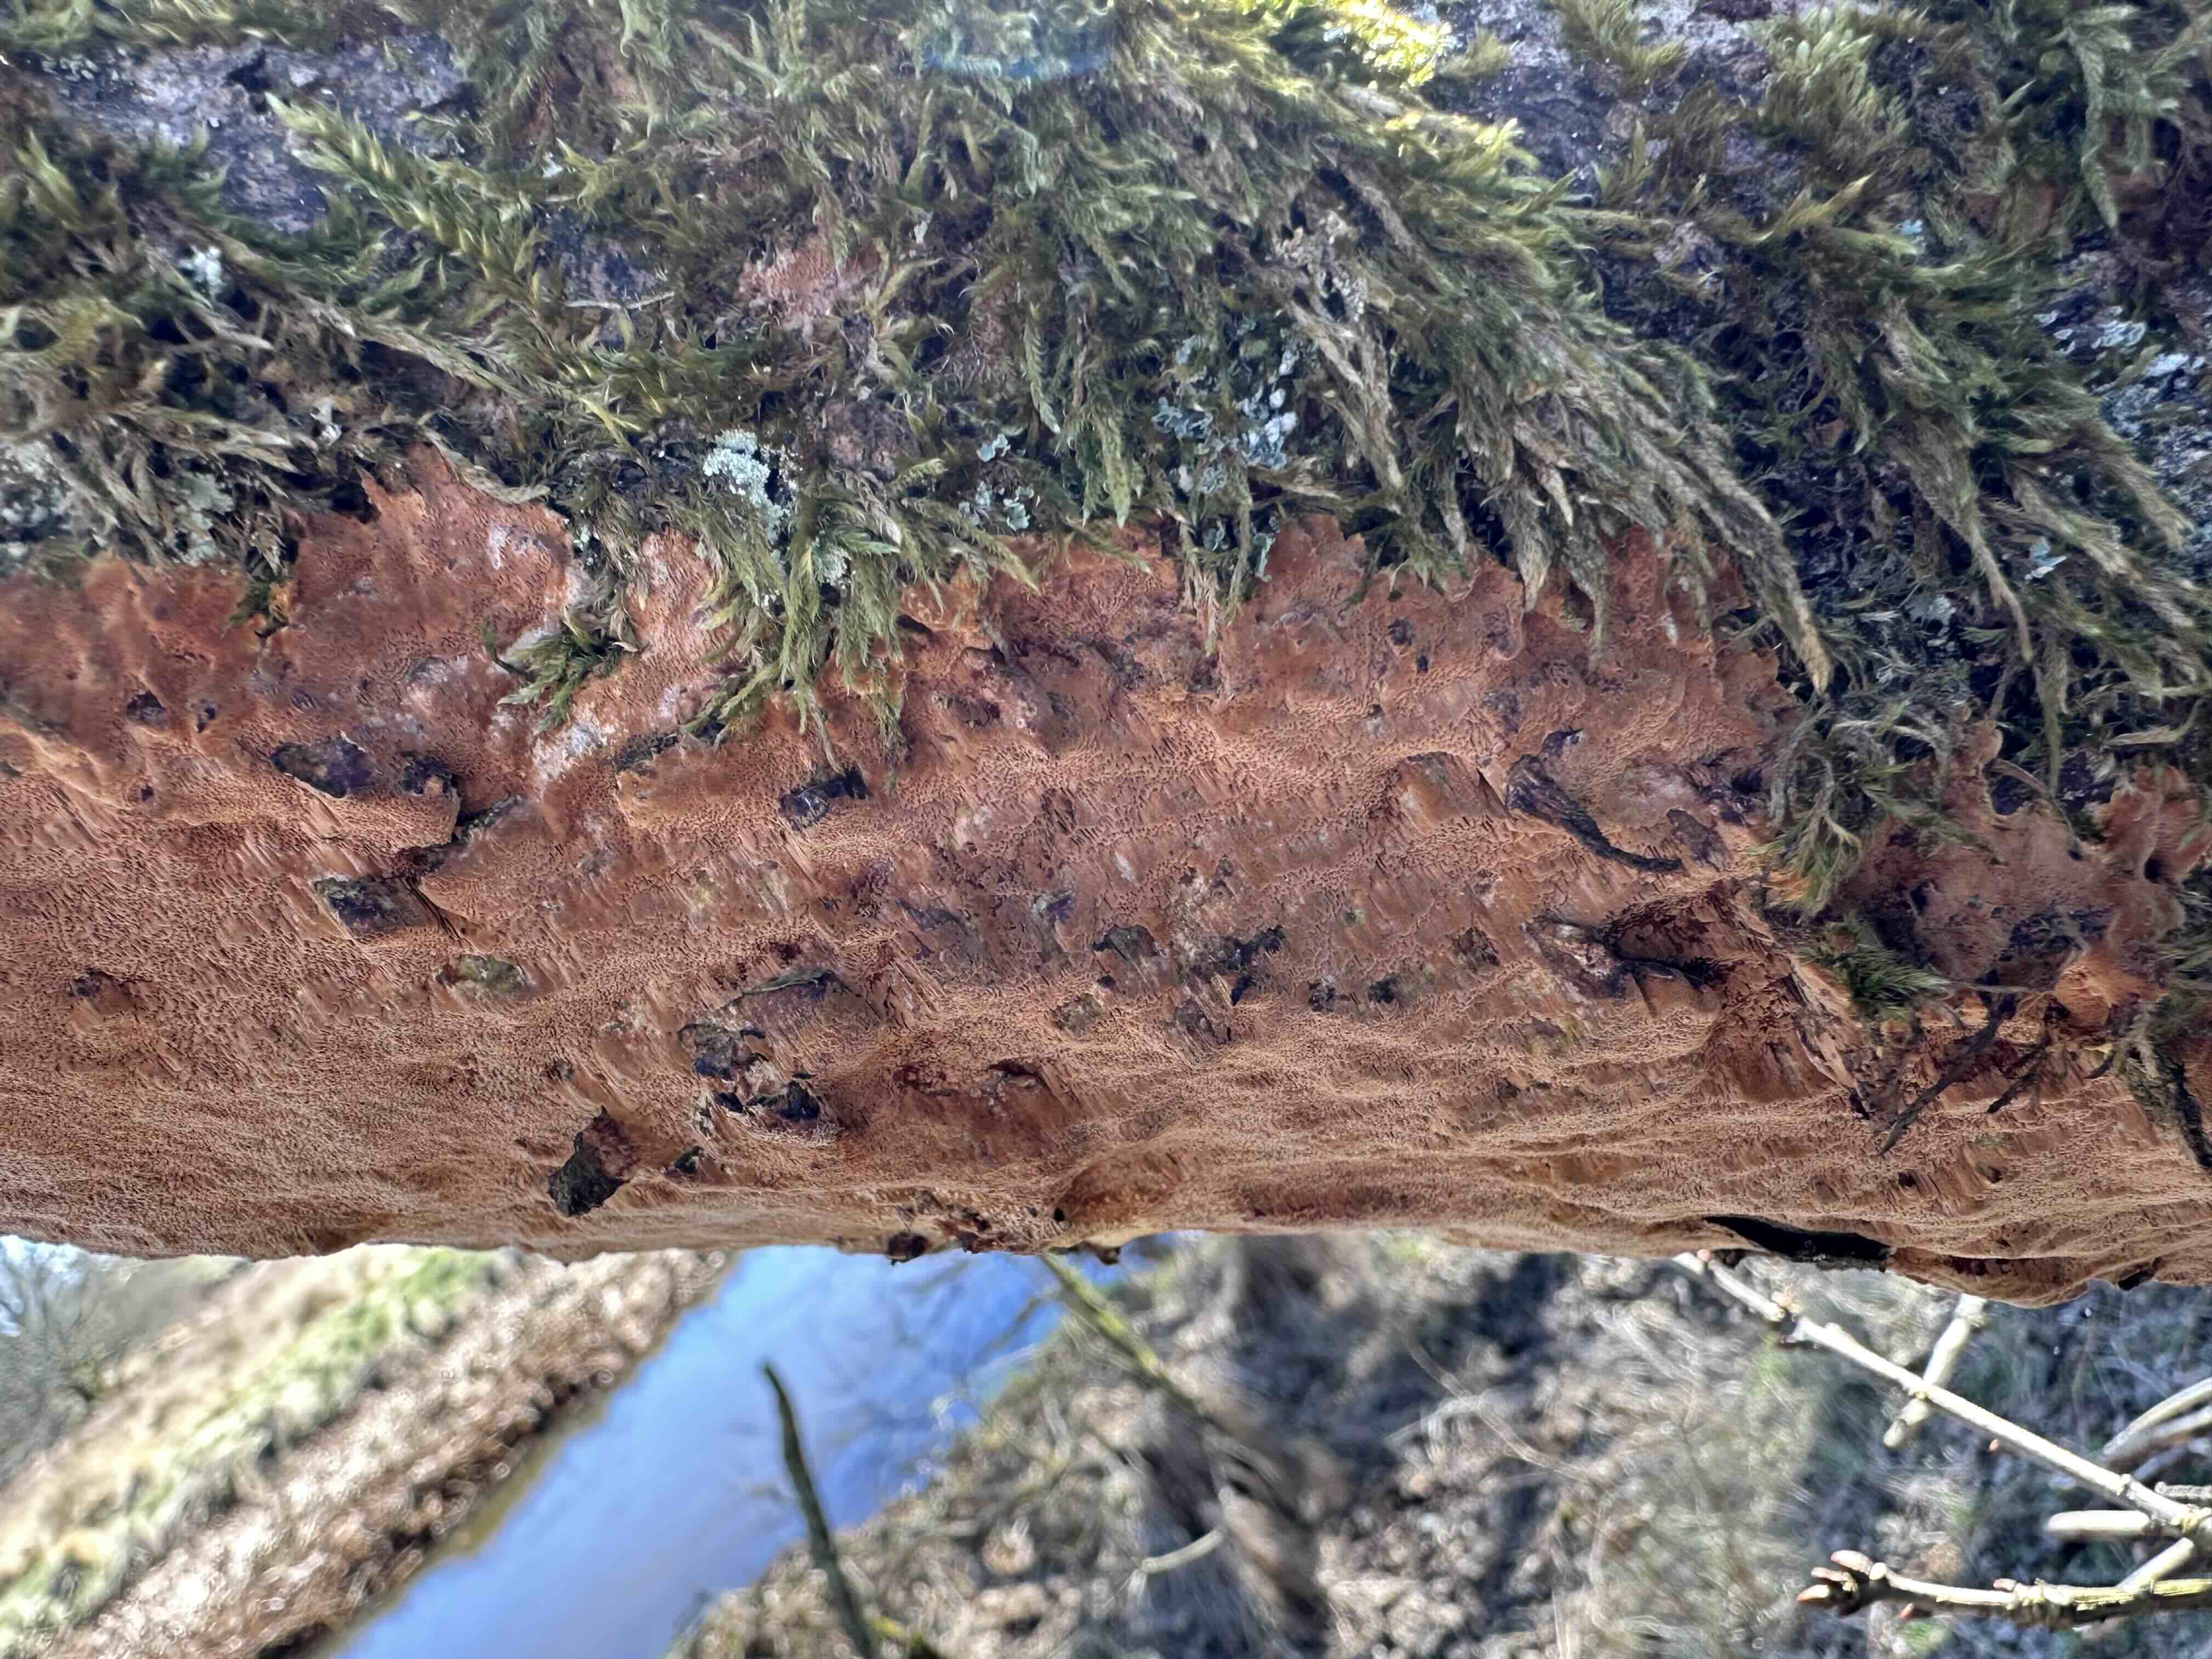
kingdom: Fungi
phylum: Basidiomycota
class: Agaricomycetes
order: Hymenochaetales
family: Hymenochaetaceae
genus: Fuscoporia
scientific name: Fuscoporia ferrea
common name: skorpe-ildporesvamp
